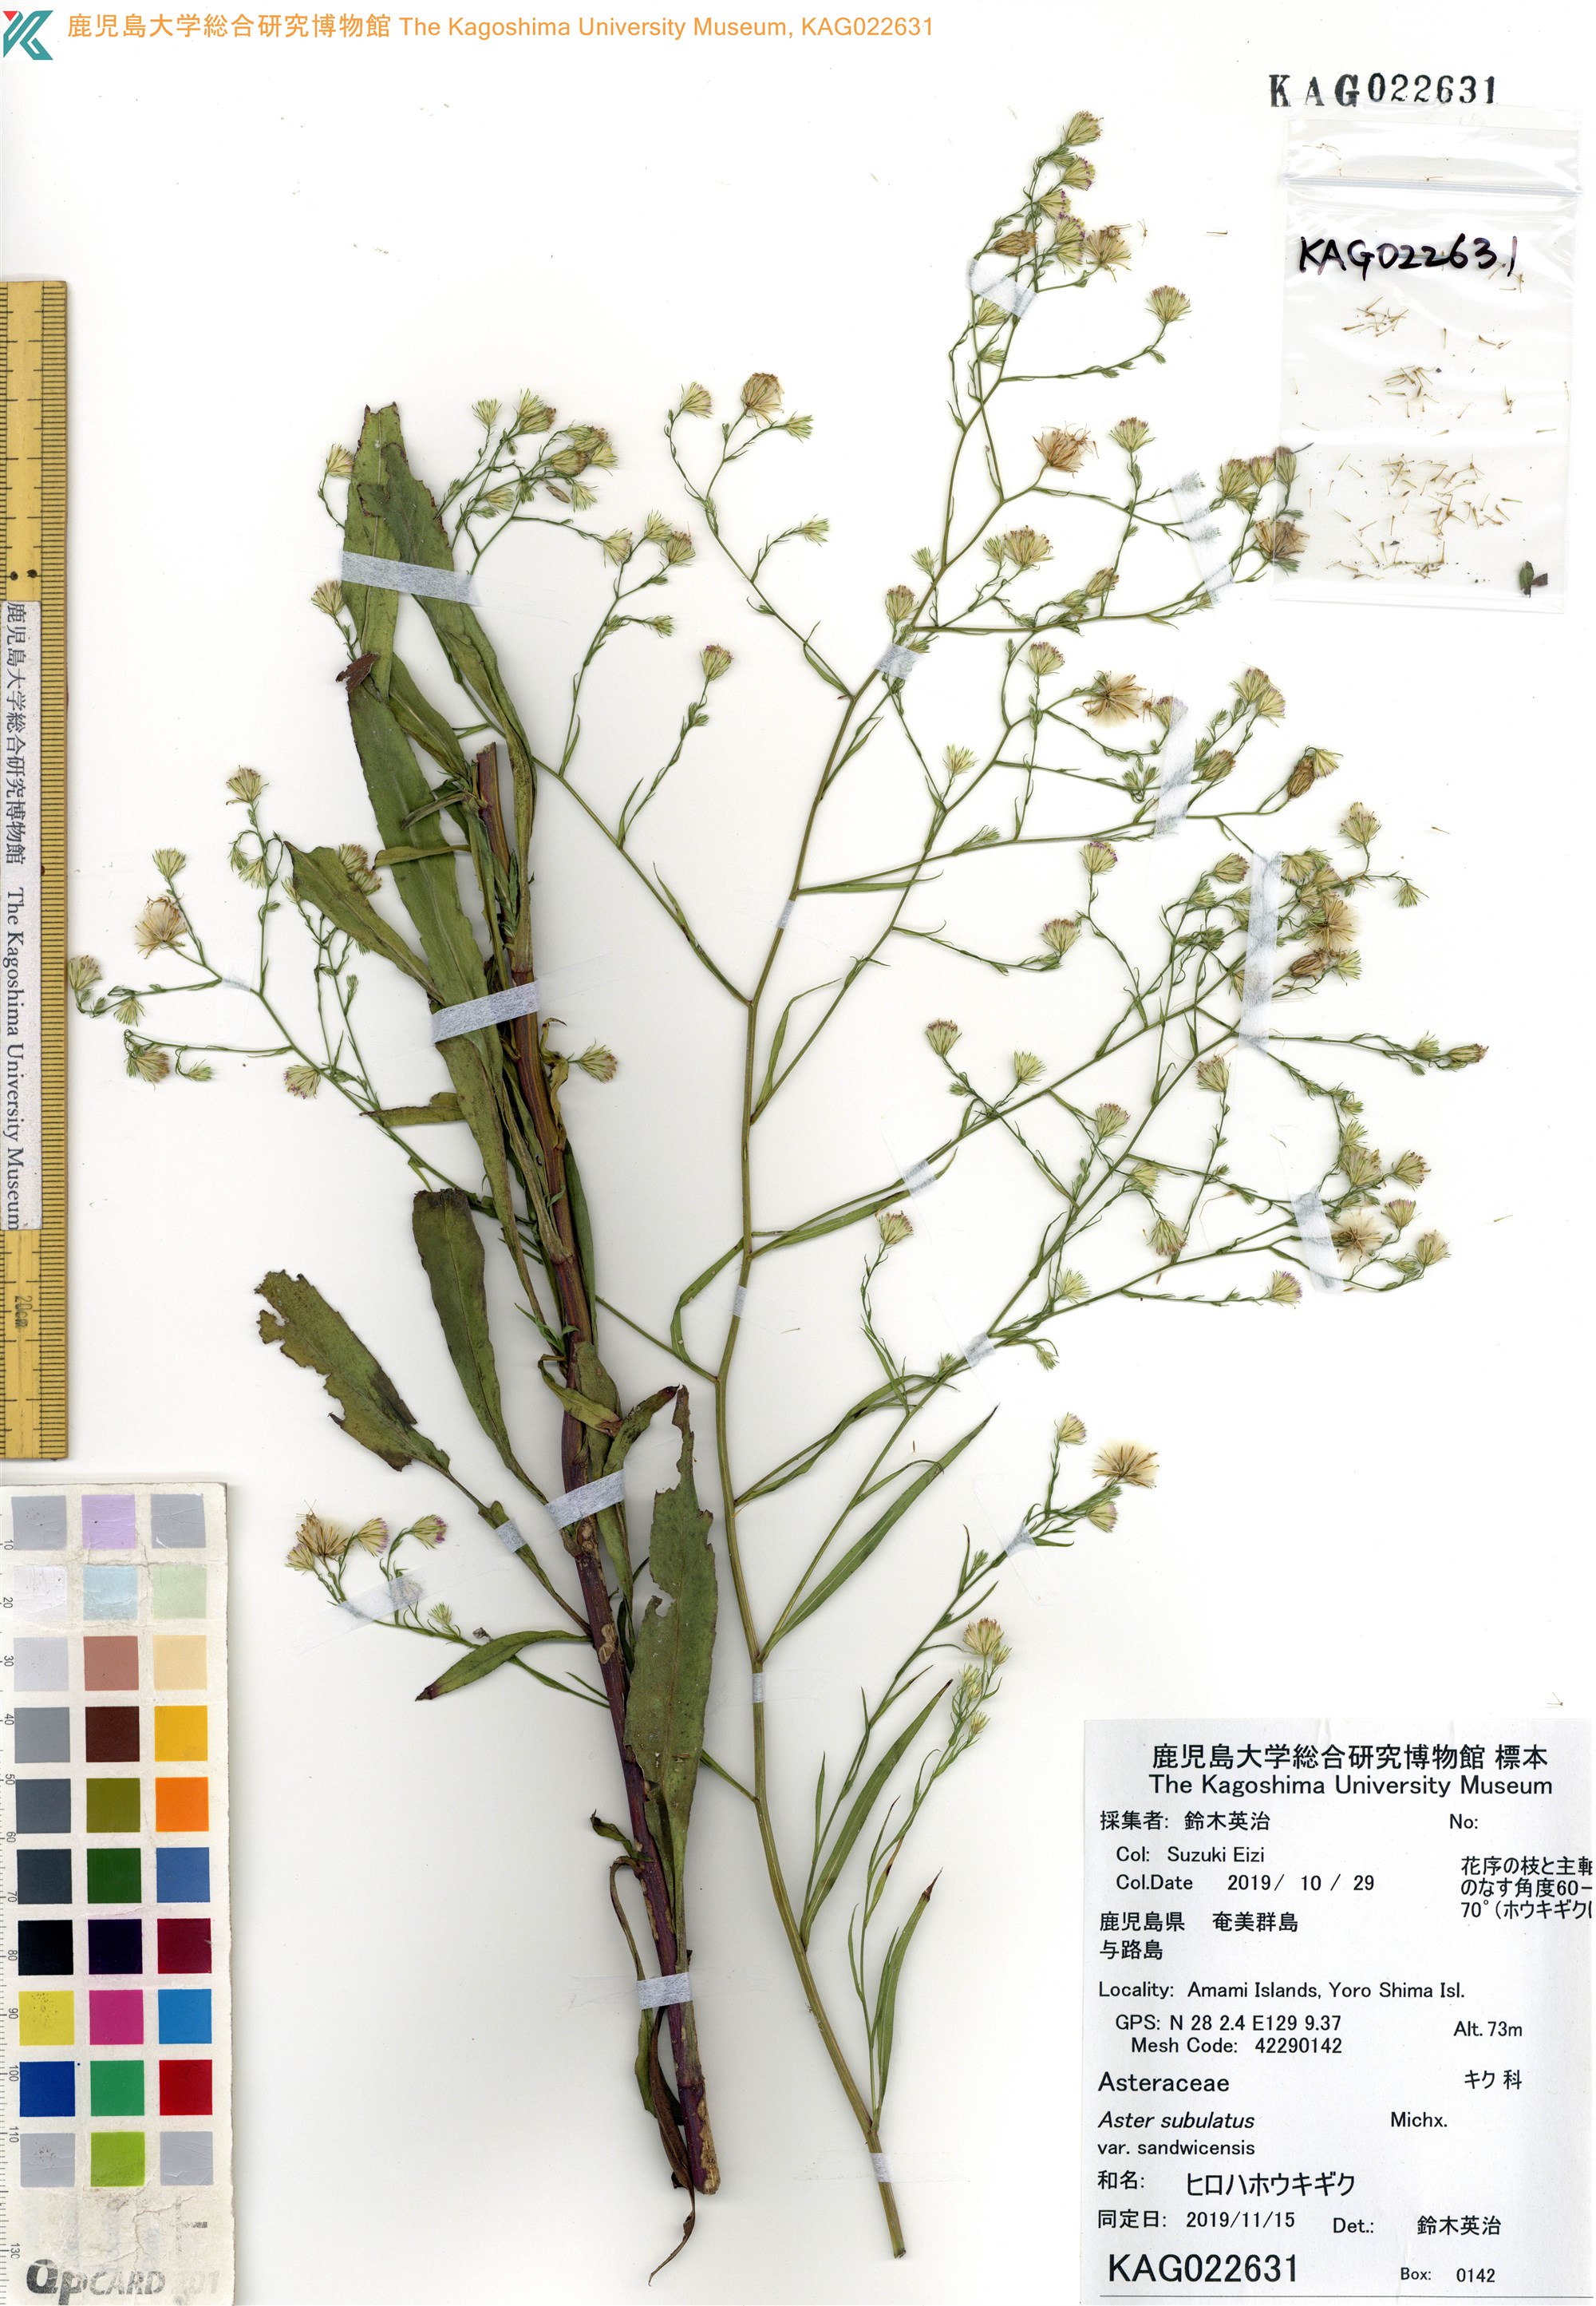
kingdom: Plantae
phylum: Tracheophyta
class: Magnoliopsida
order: Asterales
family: Asteraceae
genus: Symphyotrichum
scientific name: Symphyotrichum squamatum
